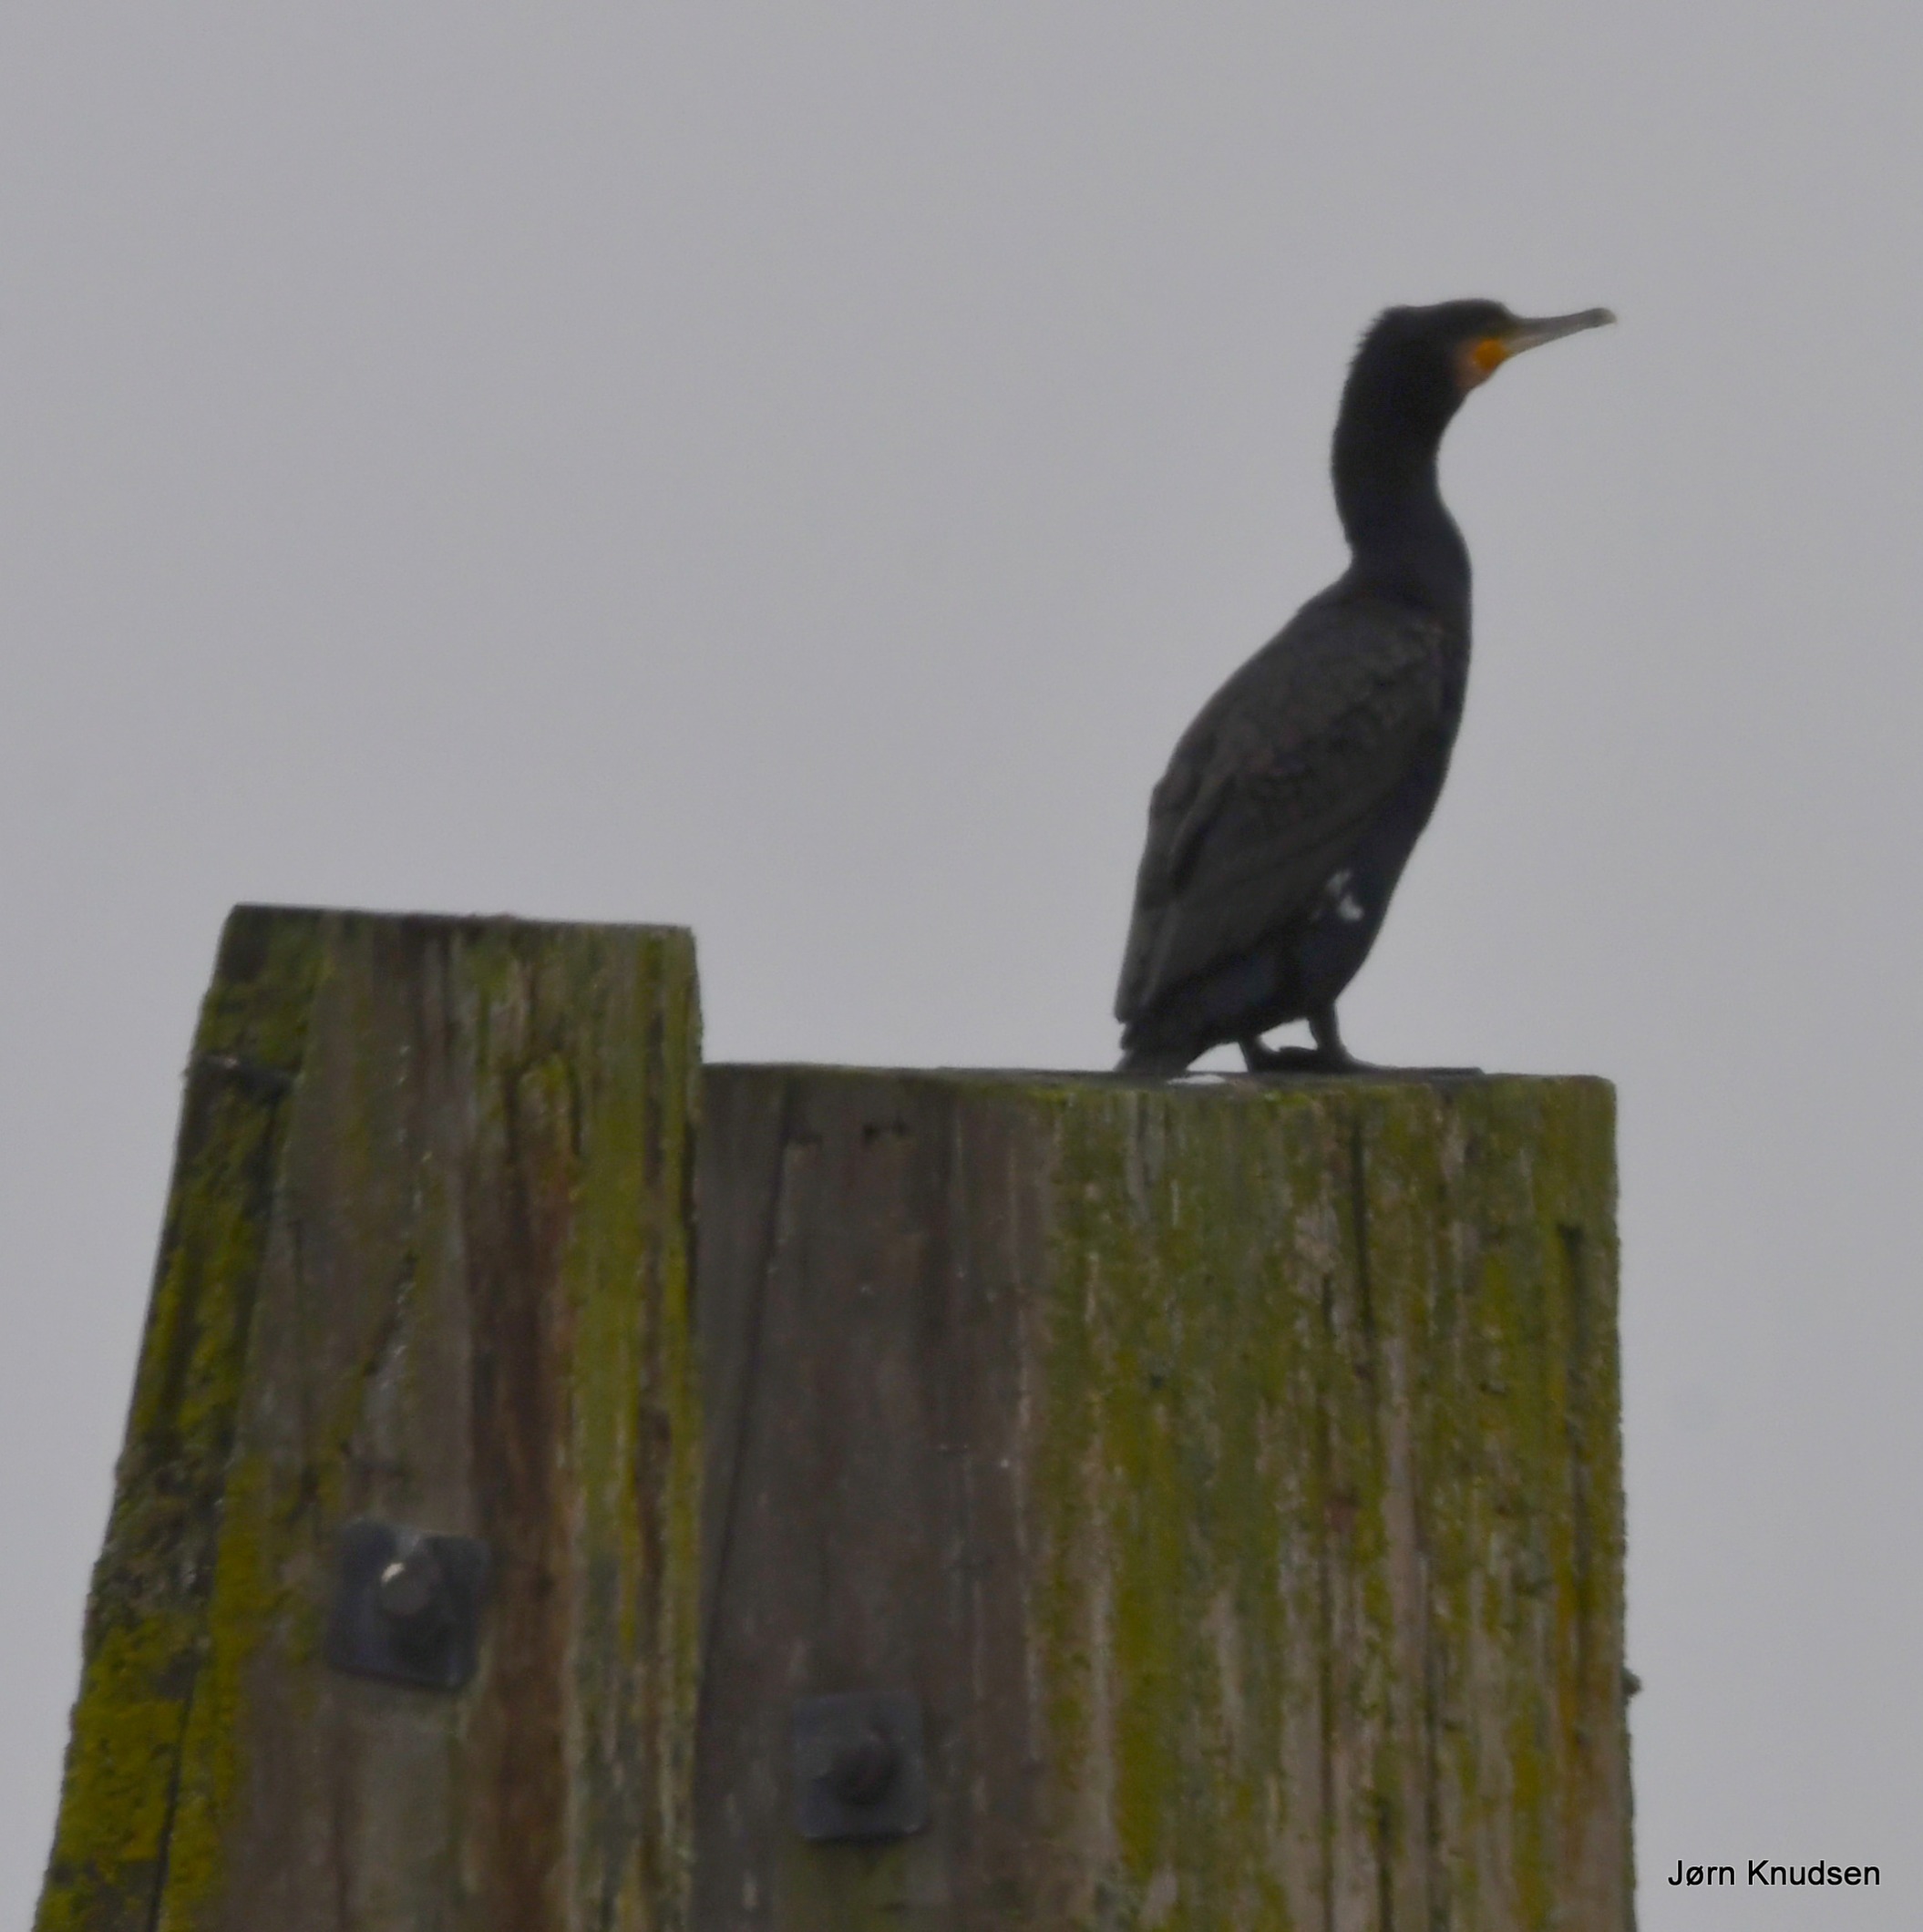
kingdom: Animalia
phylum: Chordata
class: Aves
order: Suliformes
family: Phalacrocoracidae
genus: Phalacrocorax
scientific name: Phalacrocorax carbo
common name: Skarv
